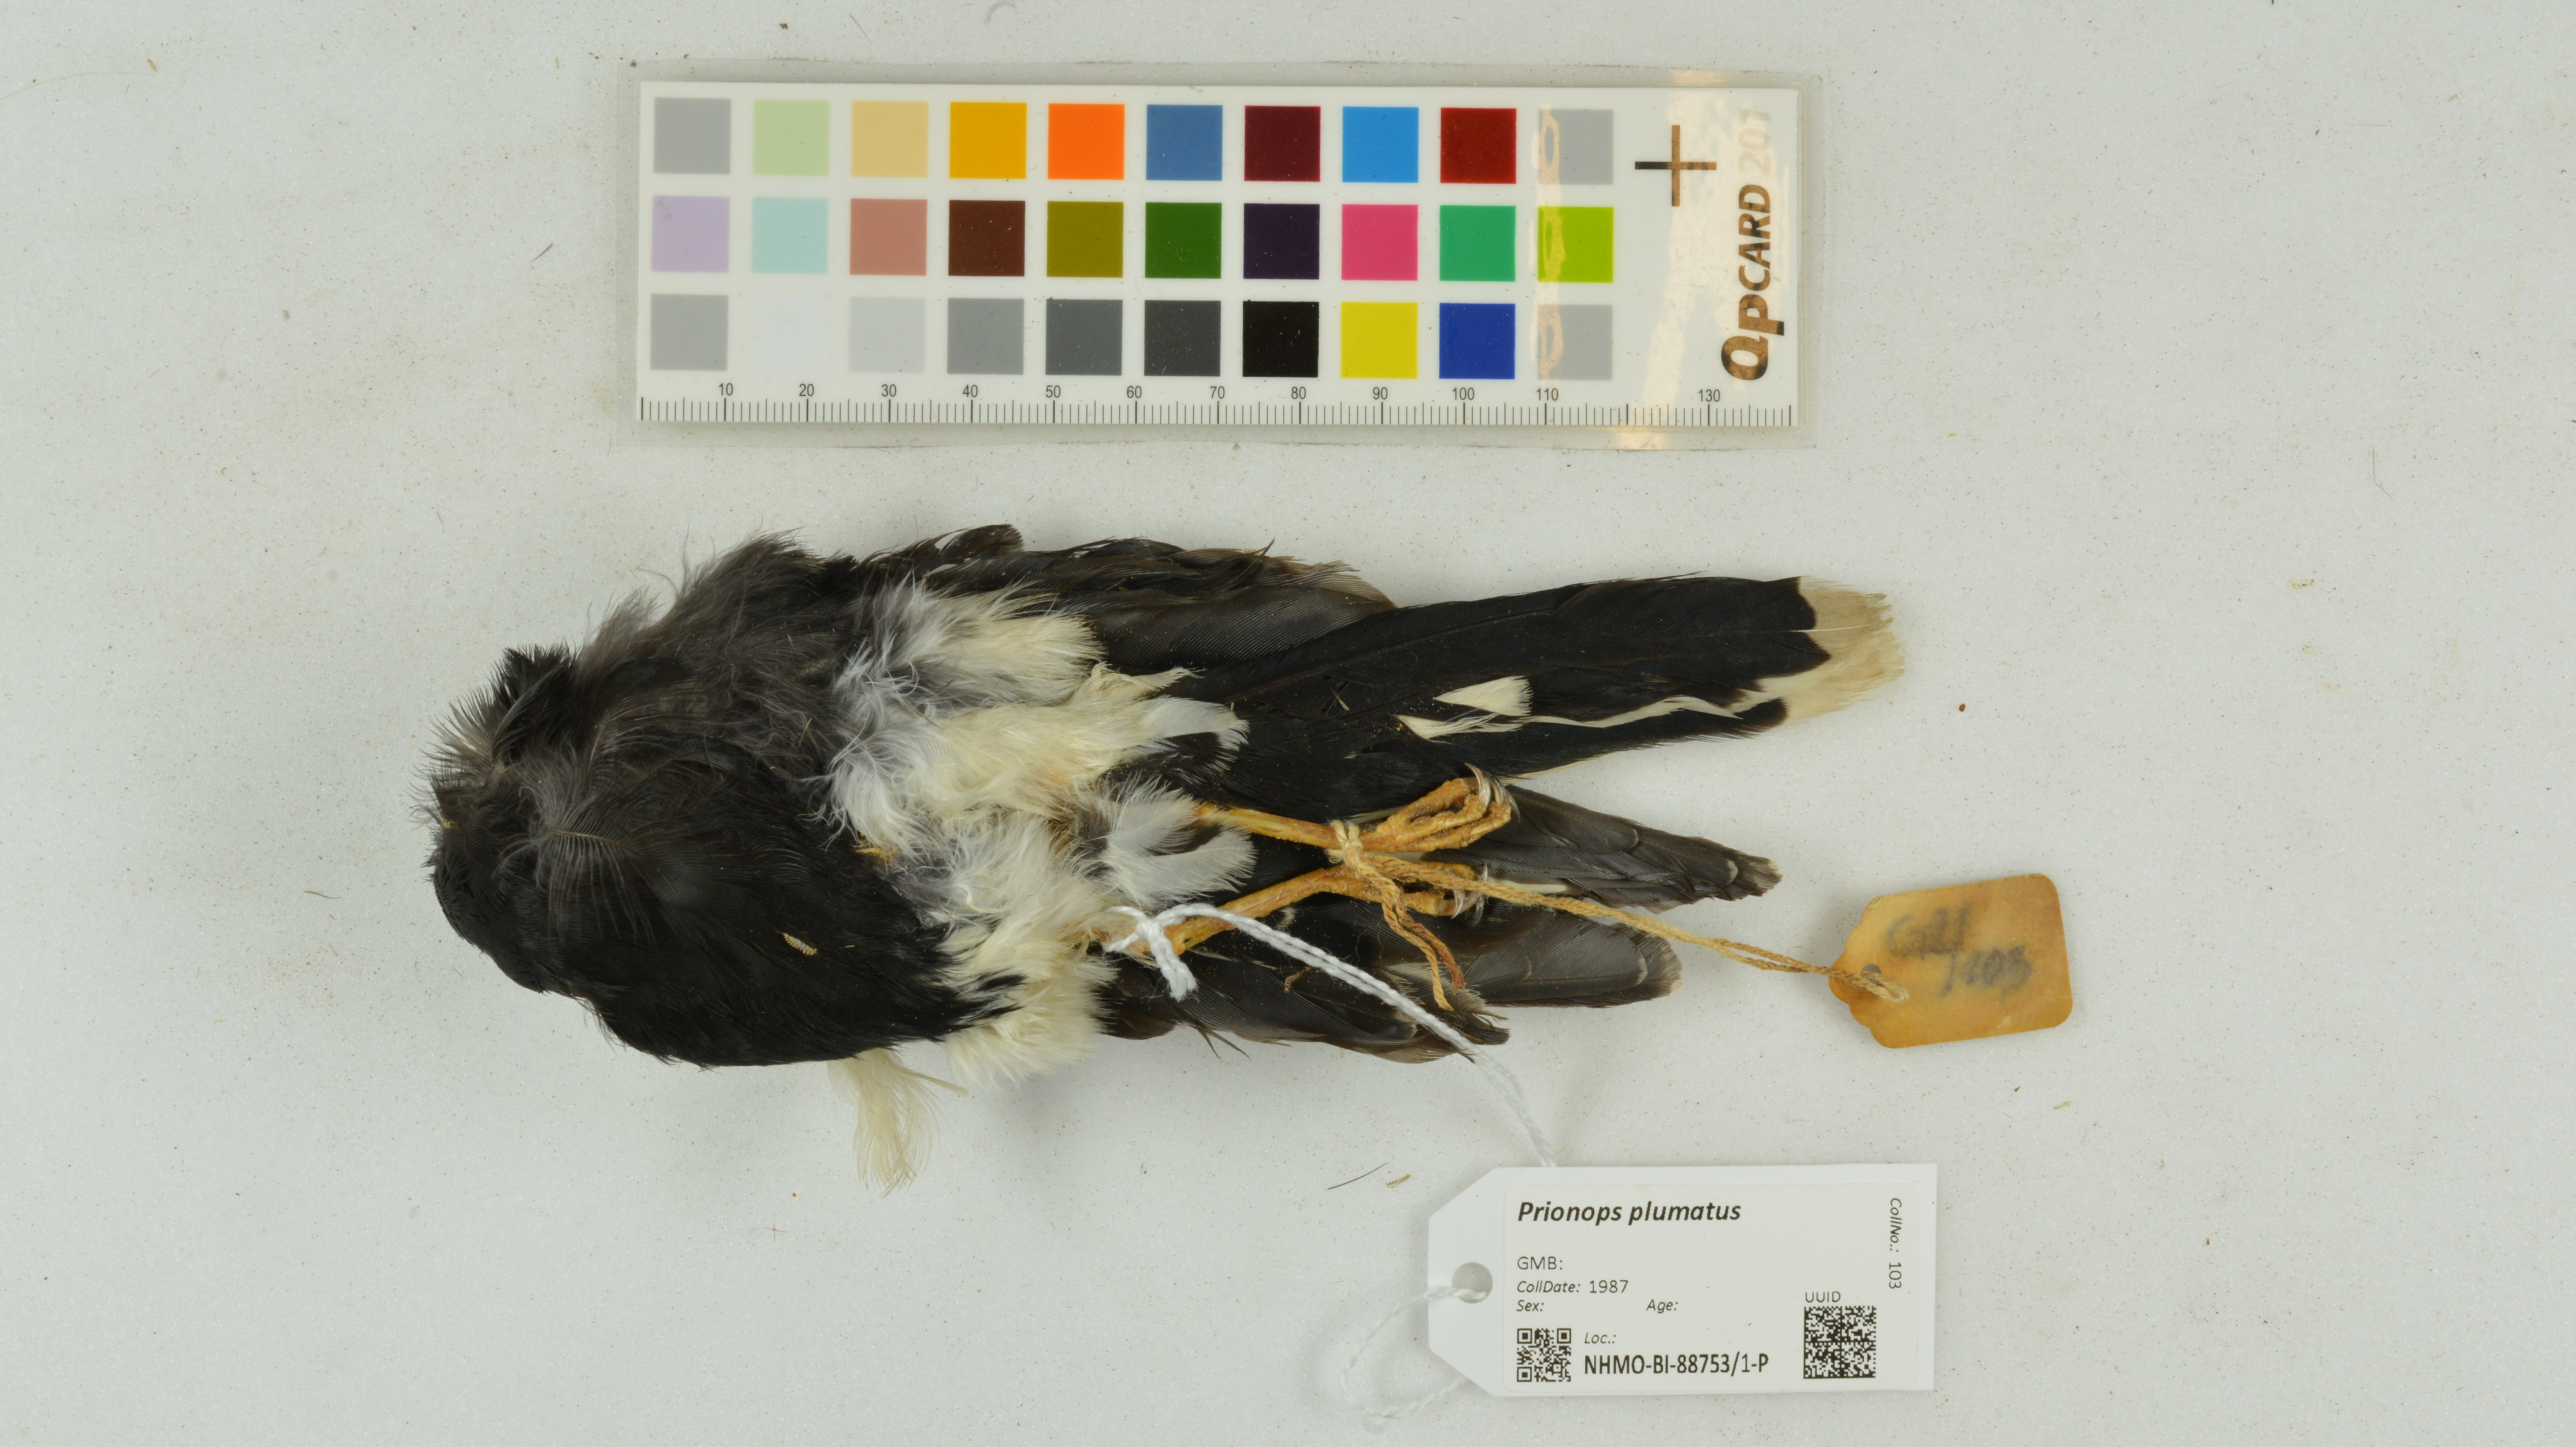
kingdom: Animalia
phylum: Chordata
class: Aves
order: Passeriformes
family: Prionopidae
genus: Prionops
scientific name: Prionops plumatus
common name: White-crested helmetshrike
